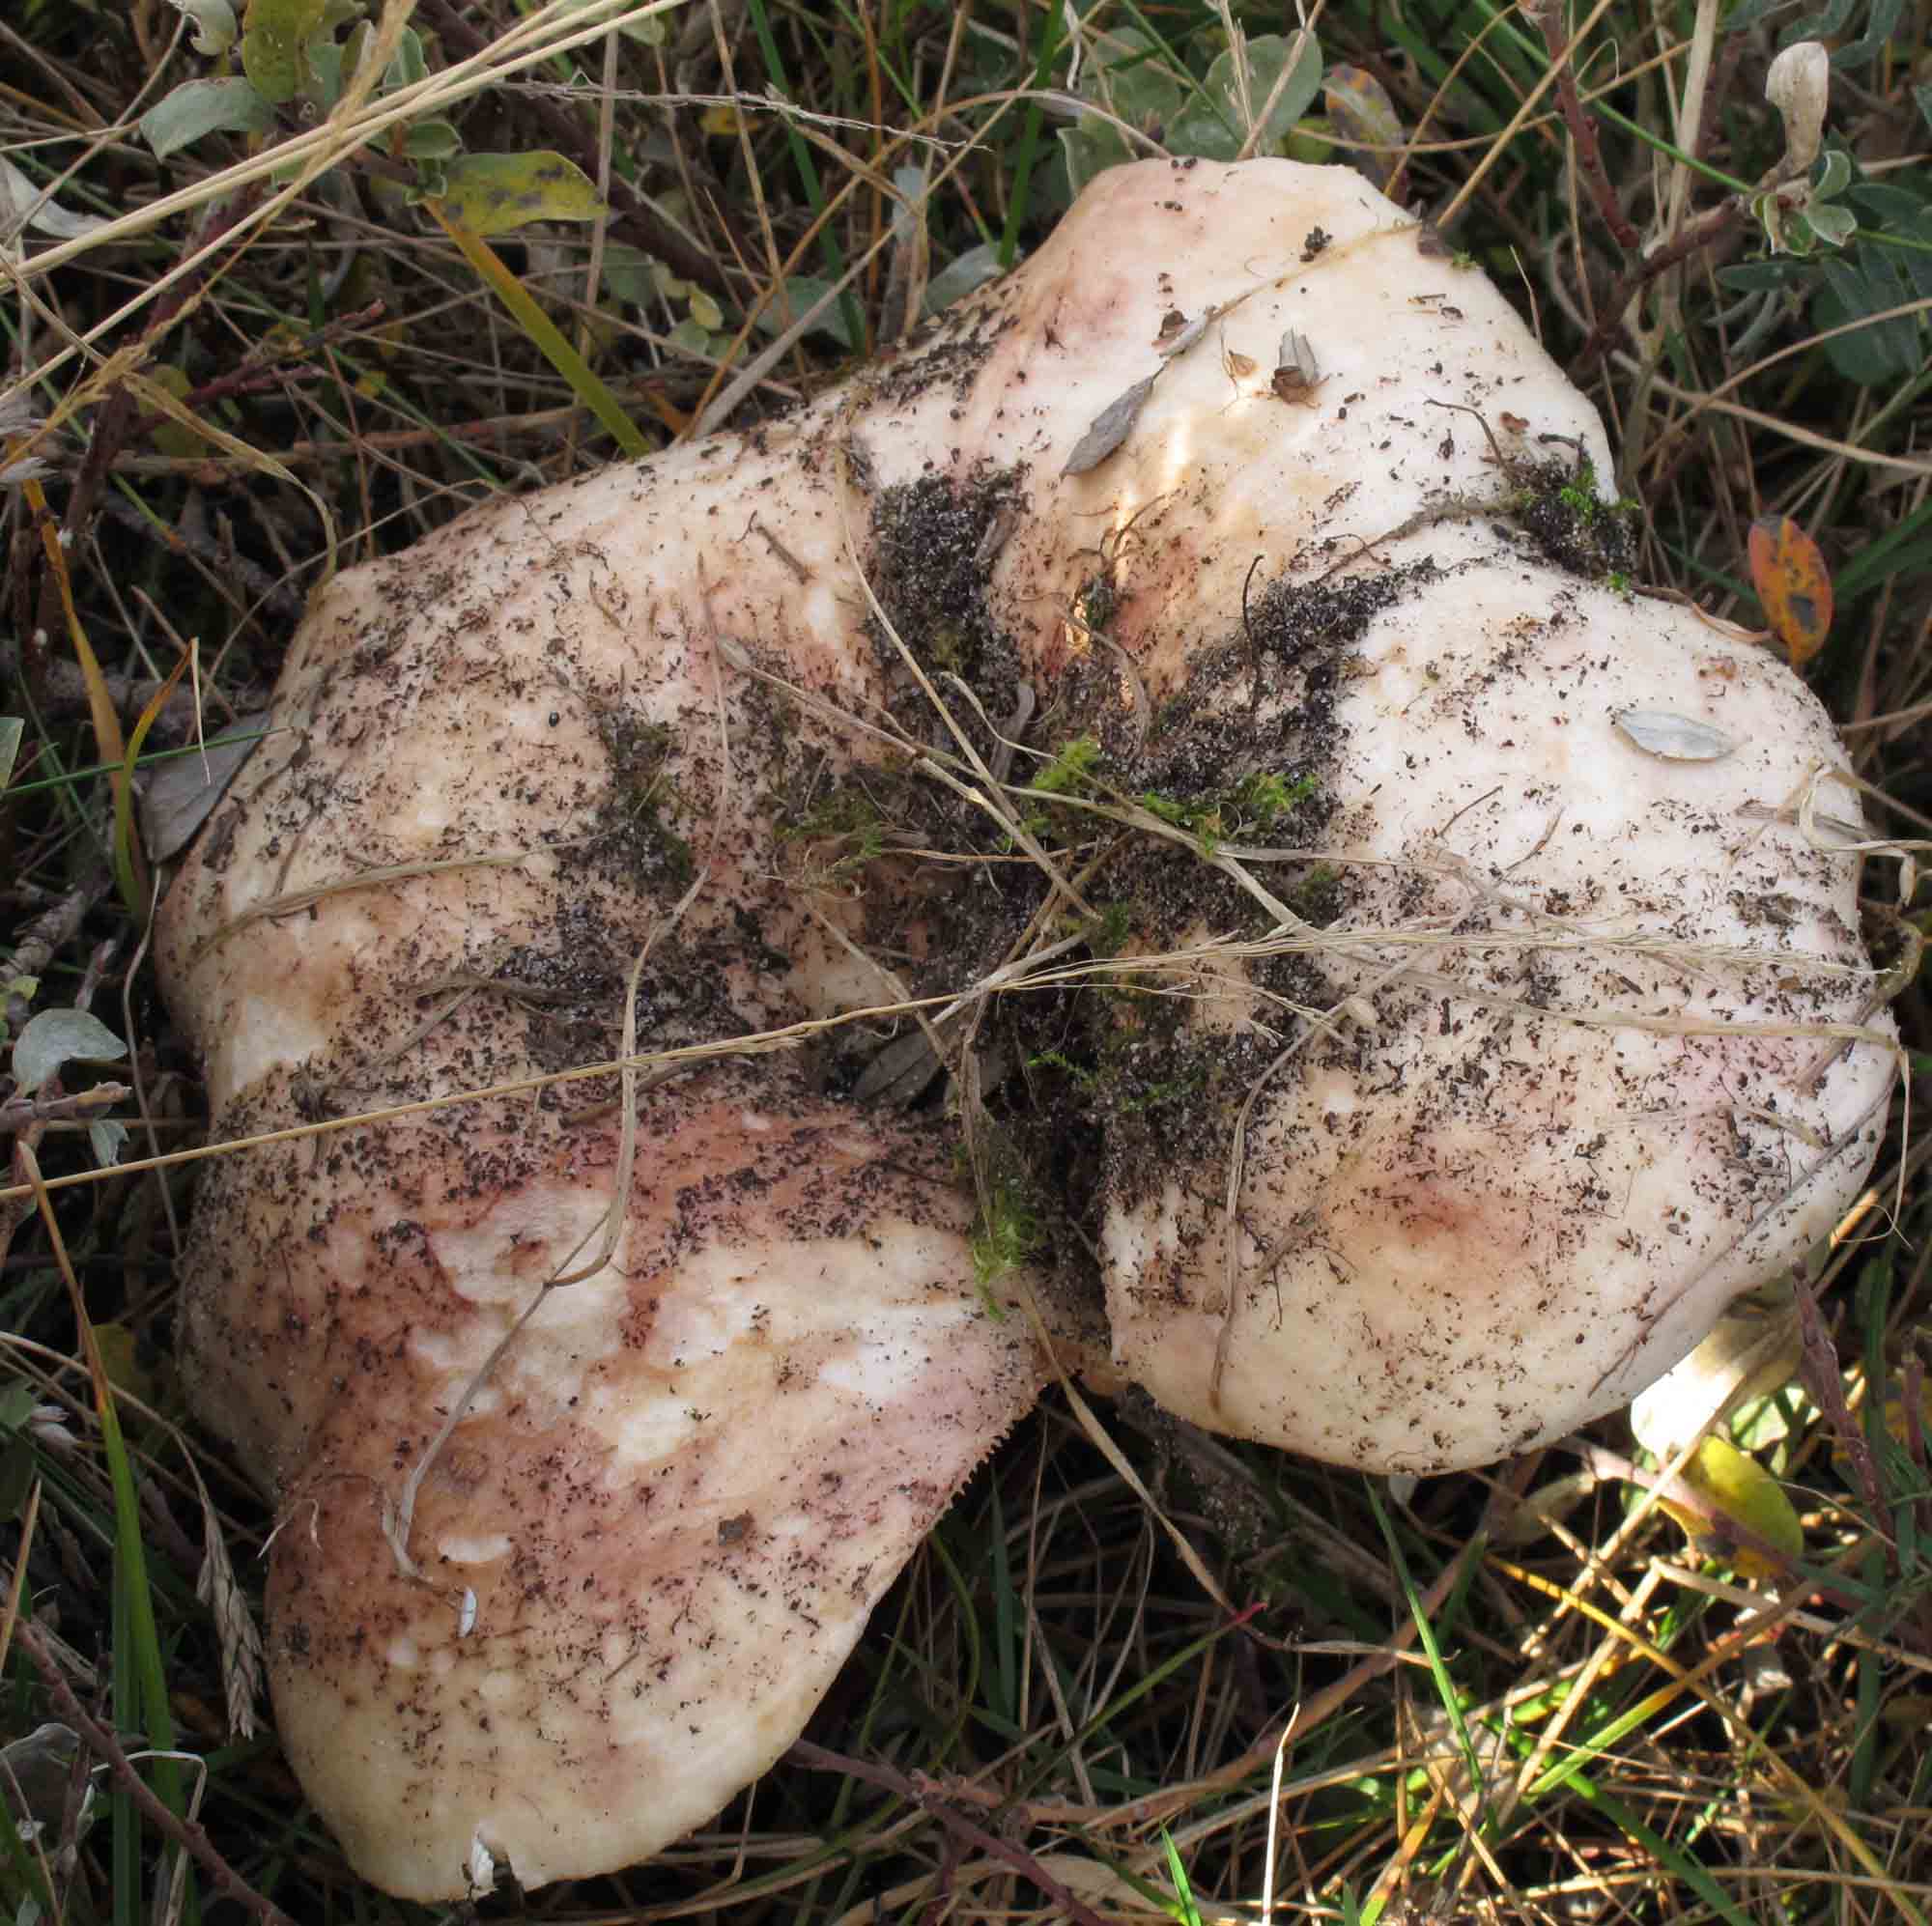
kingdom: Fungi
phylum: Basidiomycota
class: Agaricomycetes
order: Russulales
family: Russulaceae
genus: Lactarius
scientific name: Lactarius controversus
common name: rosabladet mælkehat
